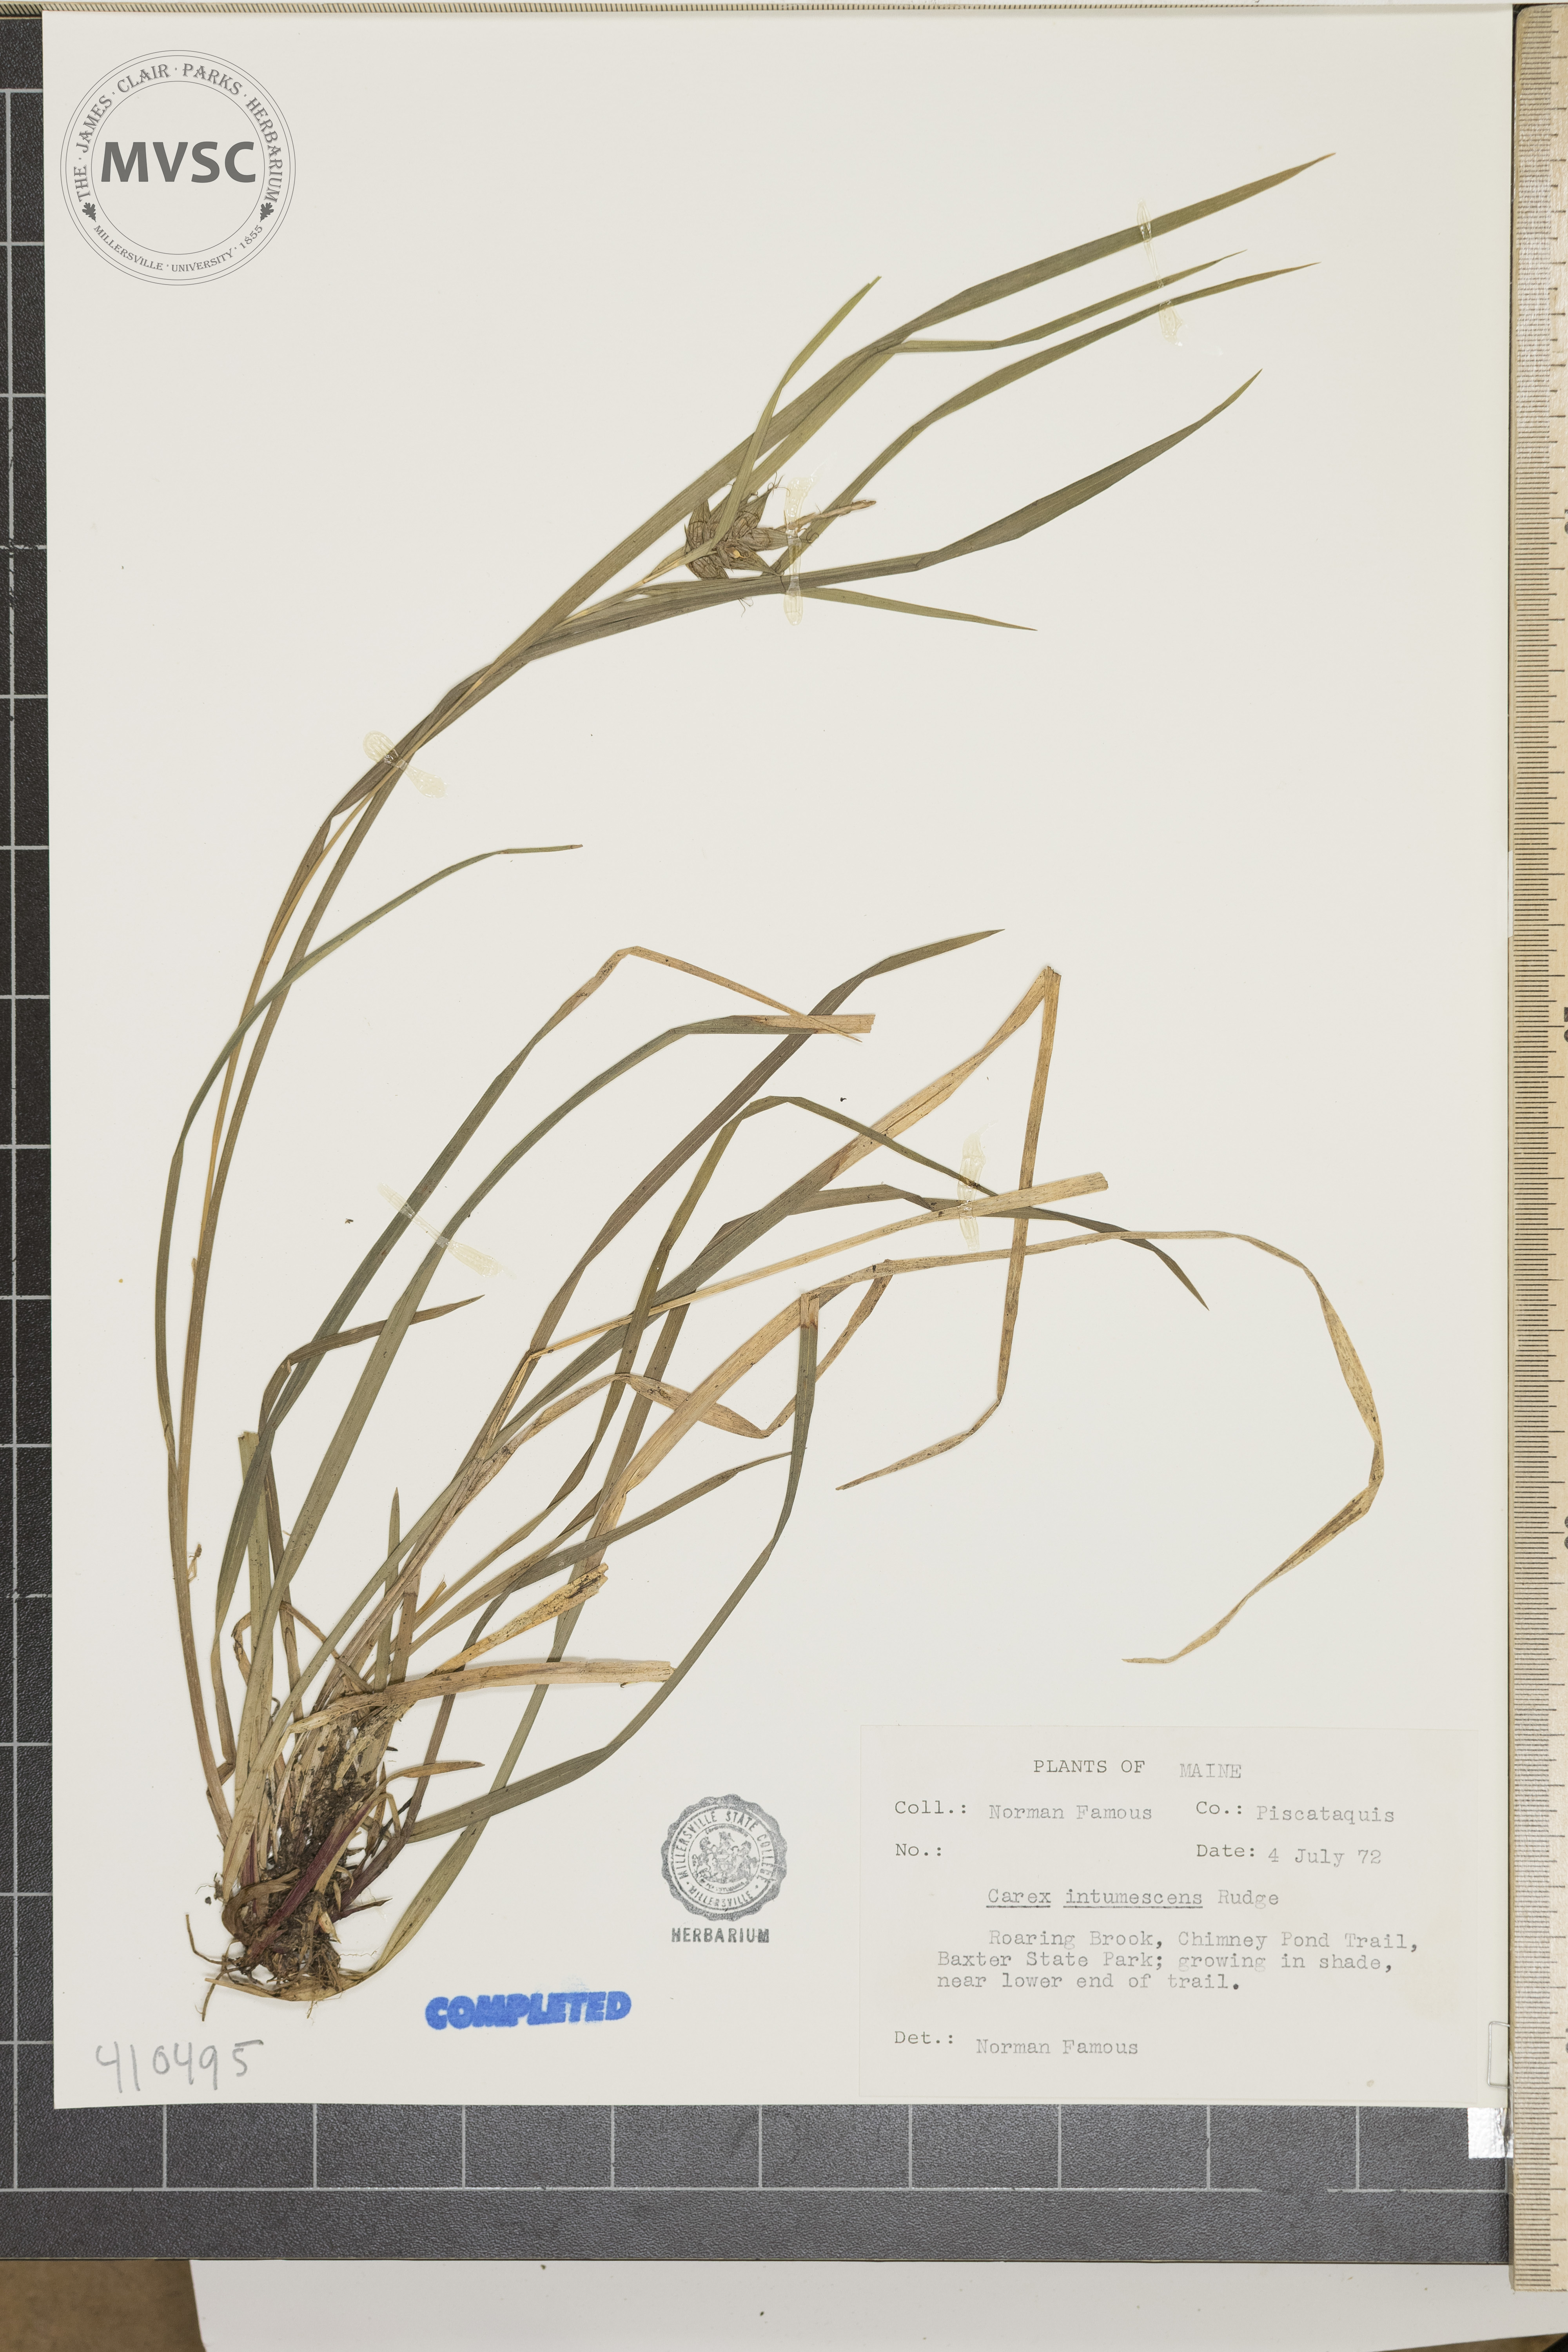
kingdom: Plantae
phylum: Tracheophyta
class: Liliopsida
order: Poales
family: Cyperaceae
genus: Carex
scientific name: Carex intumescens
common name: Greater bladder sedge
